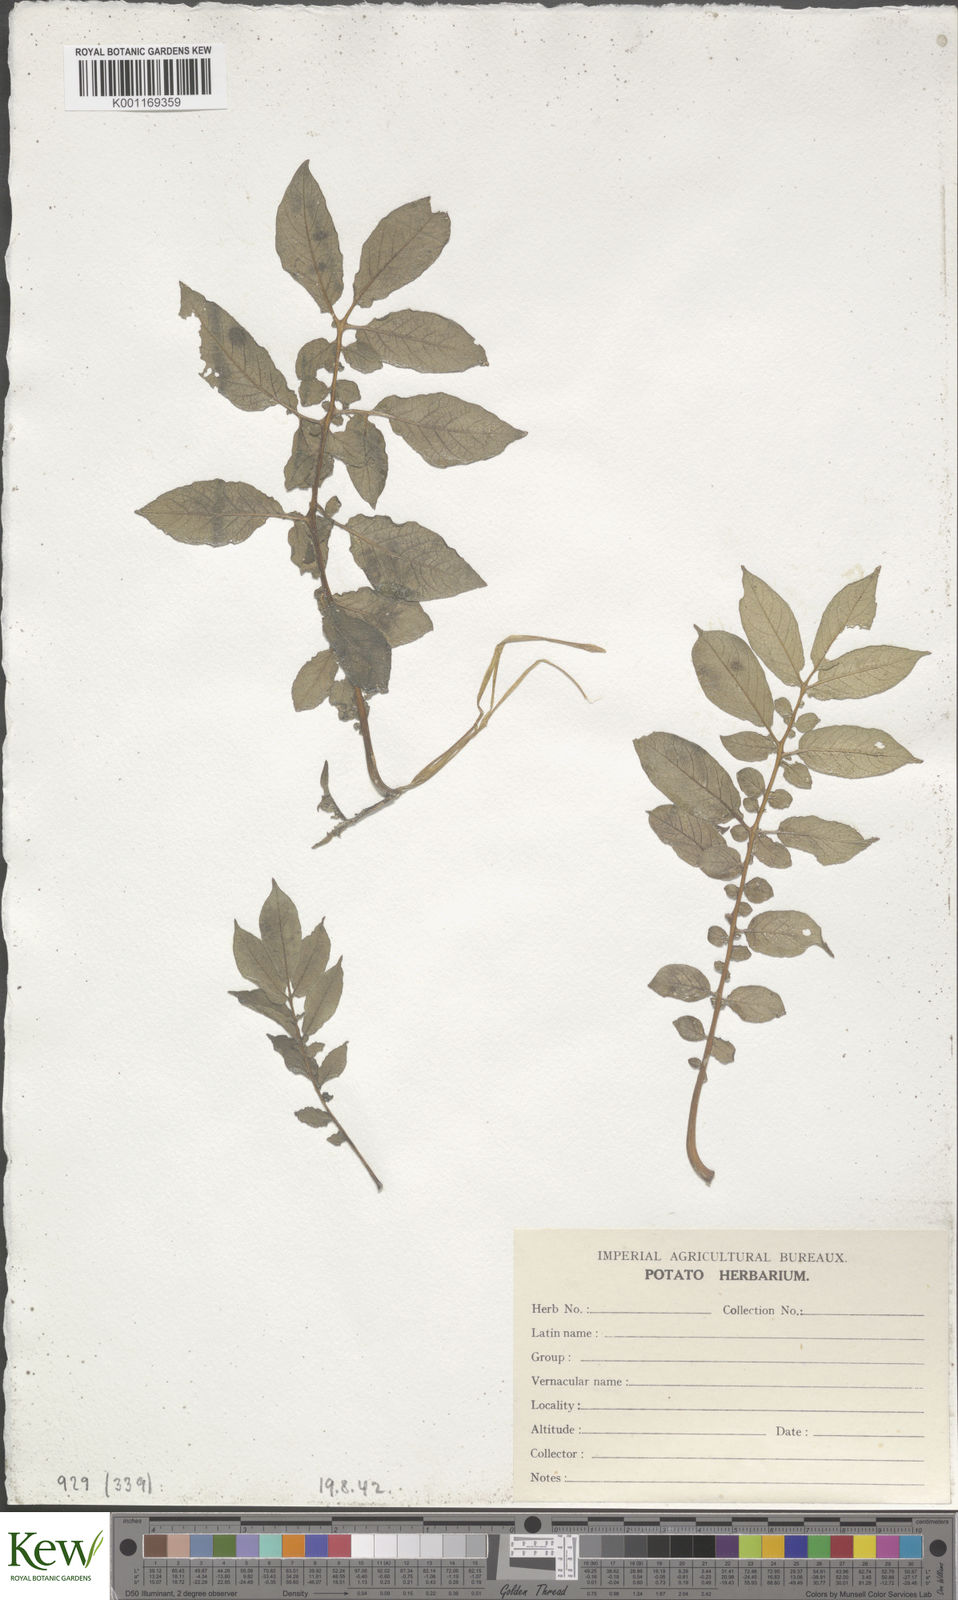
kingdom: Plantae
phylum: Tracheophyta
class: Magnoliopsida
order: Solanales
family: Solanaceae
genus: Solanum
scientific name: Solanum chaucha
